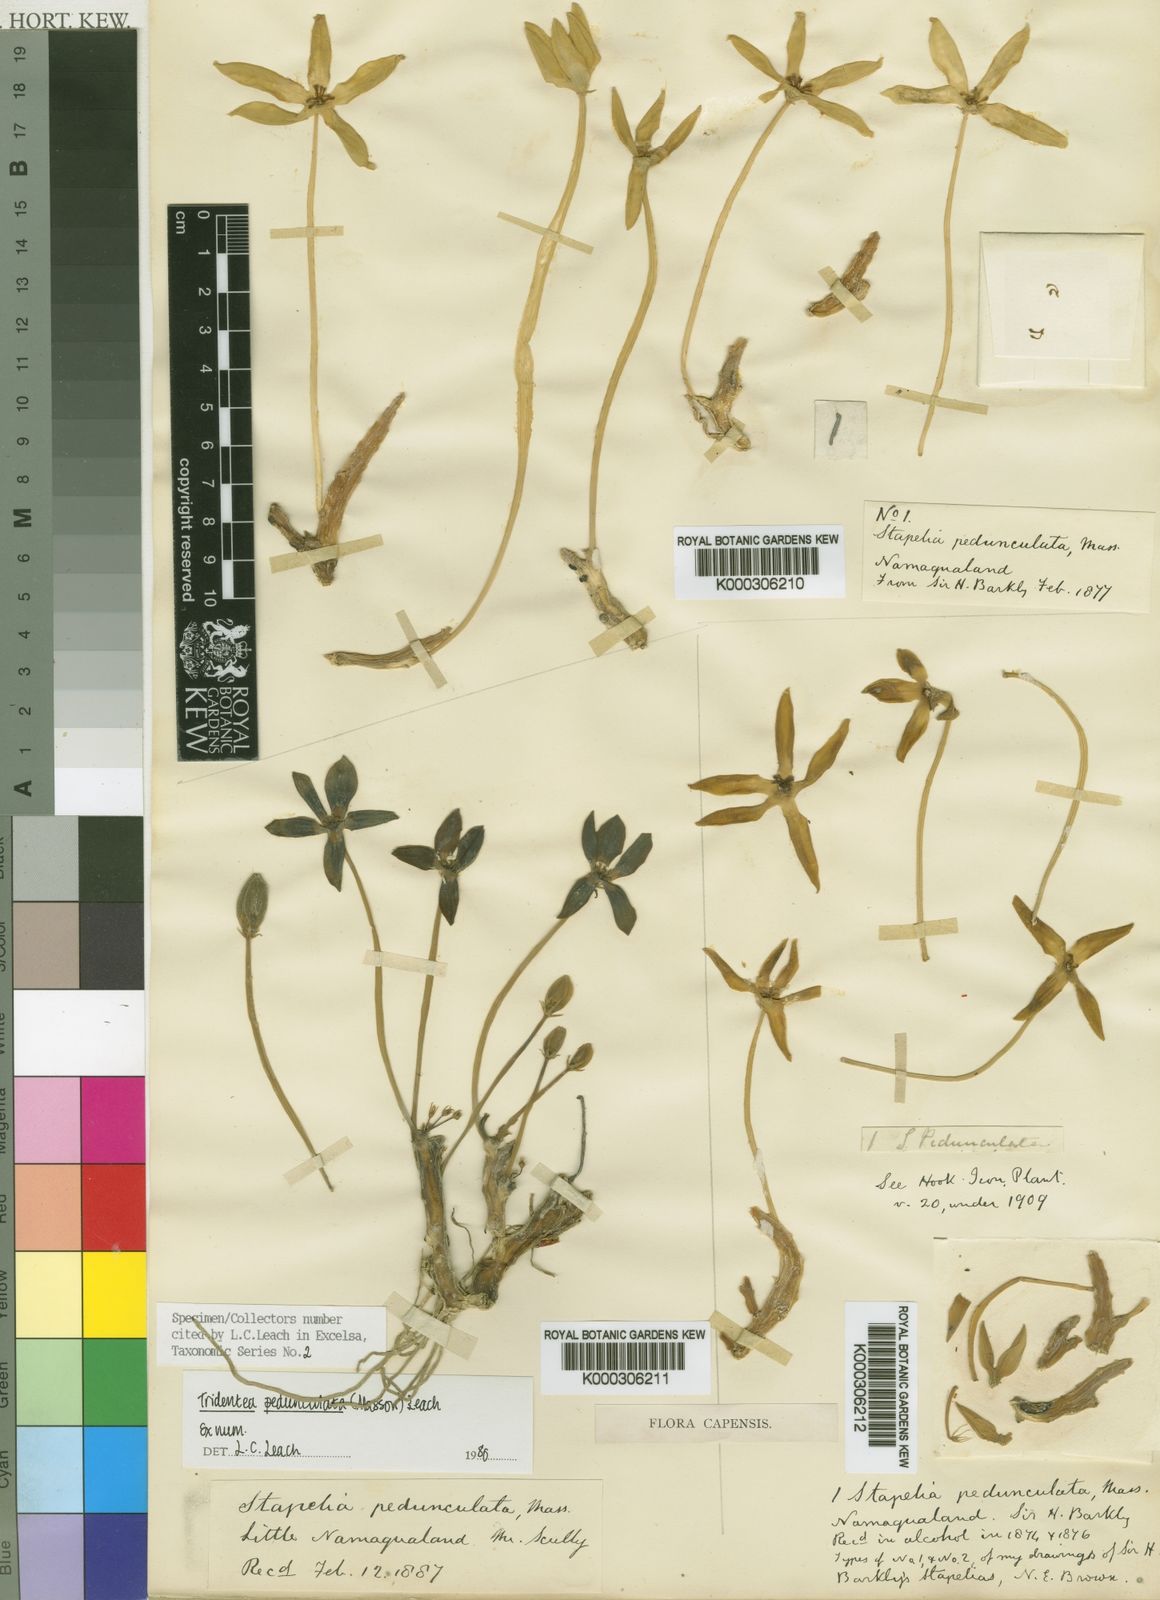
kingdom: Plantae
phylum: Tracheophyta
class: Magnoliopsida
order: Gentianales
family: Apocynaceae
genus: Ceropegia
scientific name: Ceropegia penduliflora
